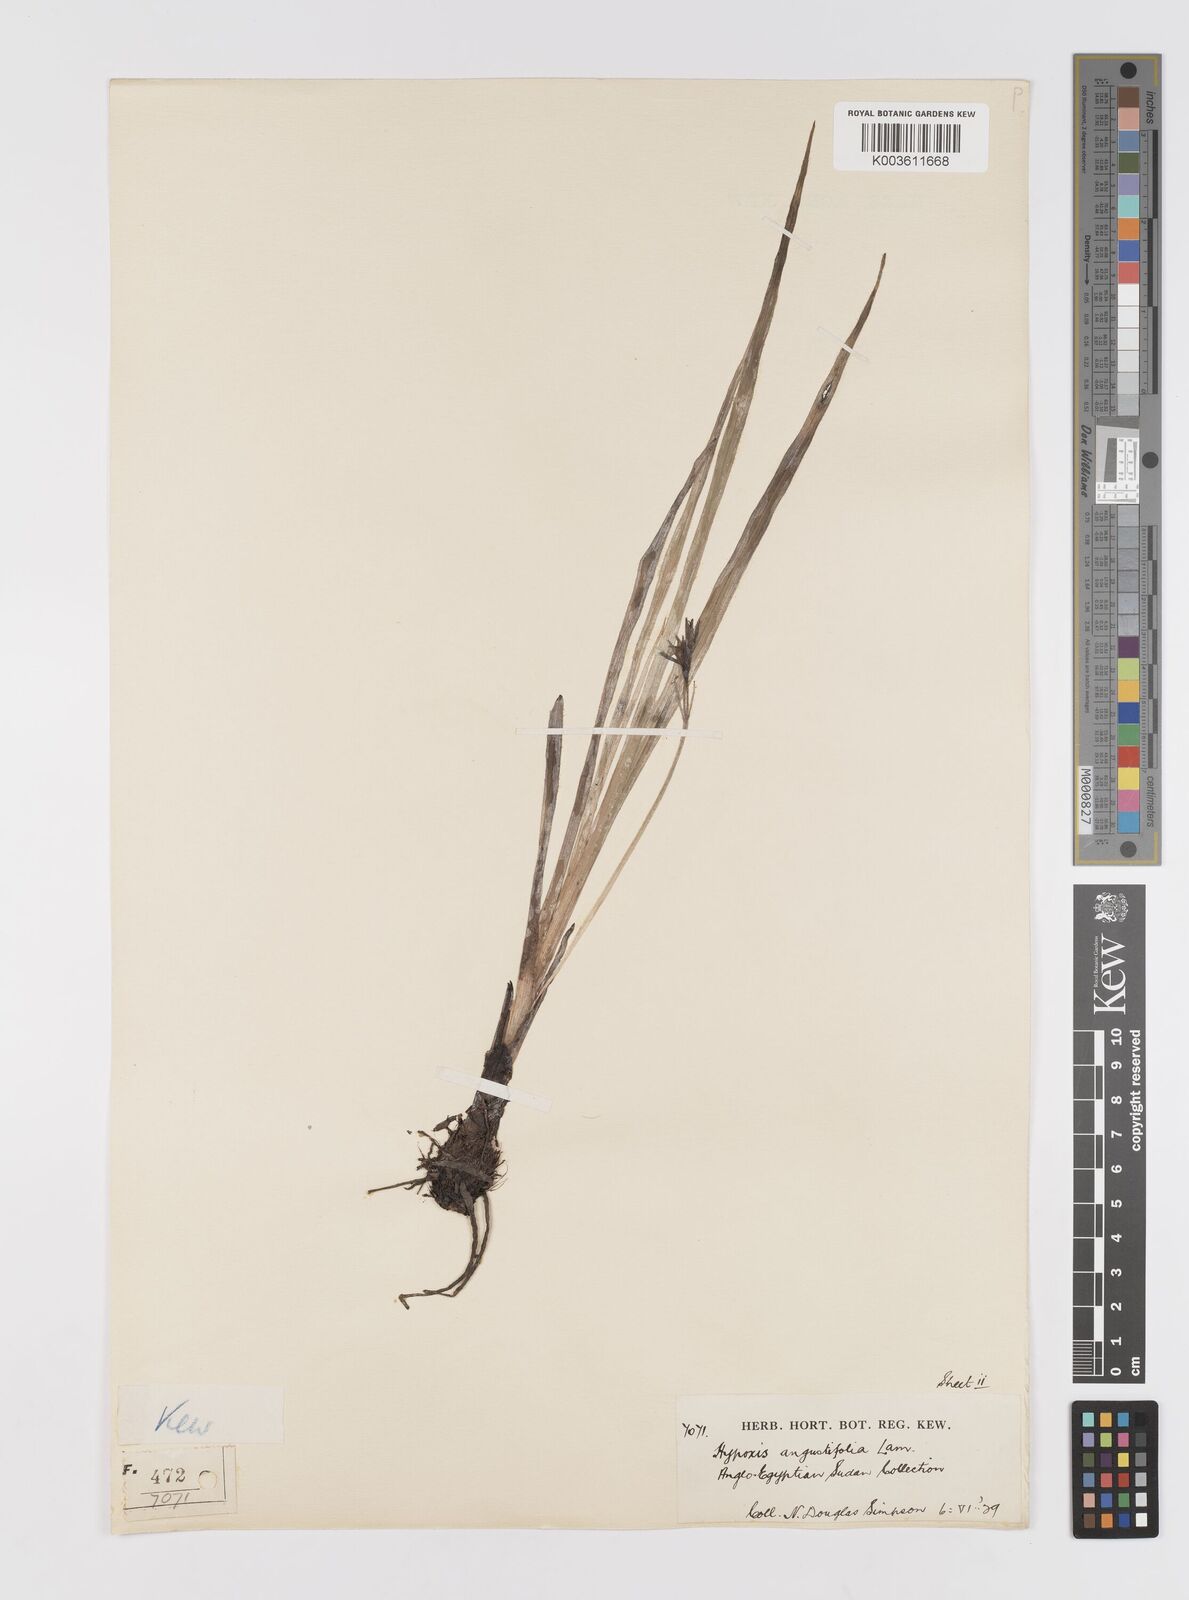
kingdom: Plantae
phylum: Tracheophyta
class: Liliopsida
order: Asparagales
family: Hypoxidaceae
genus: Hypoxis
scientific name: Hypoxis angustifolia
